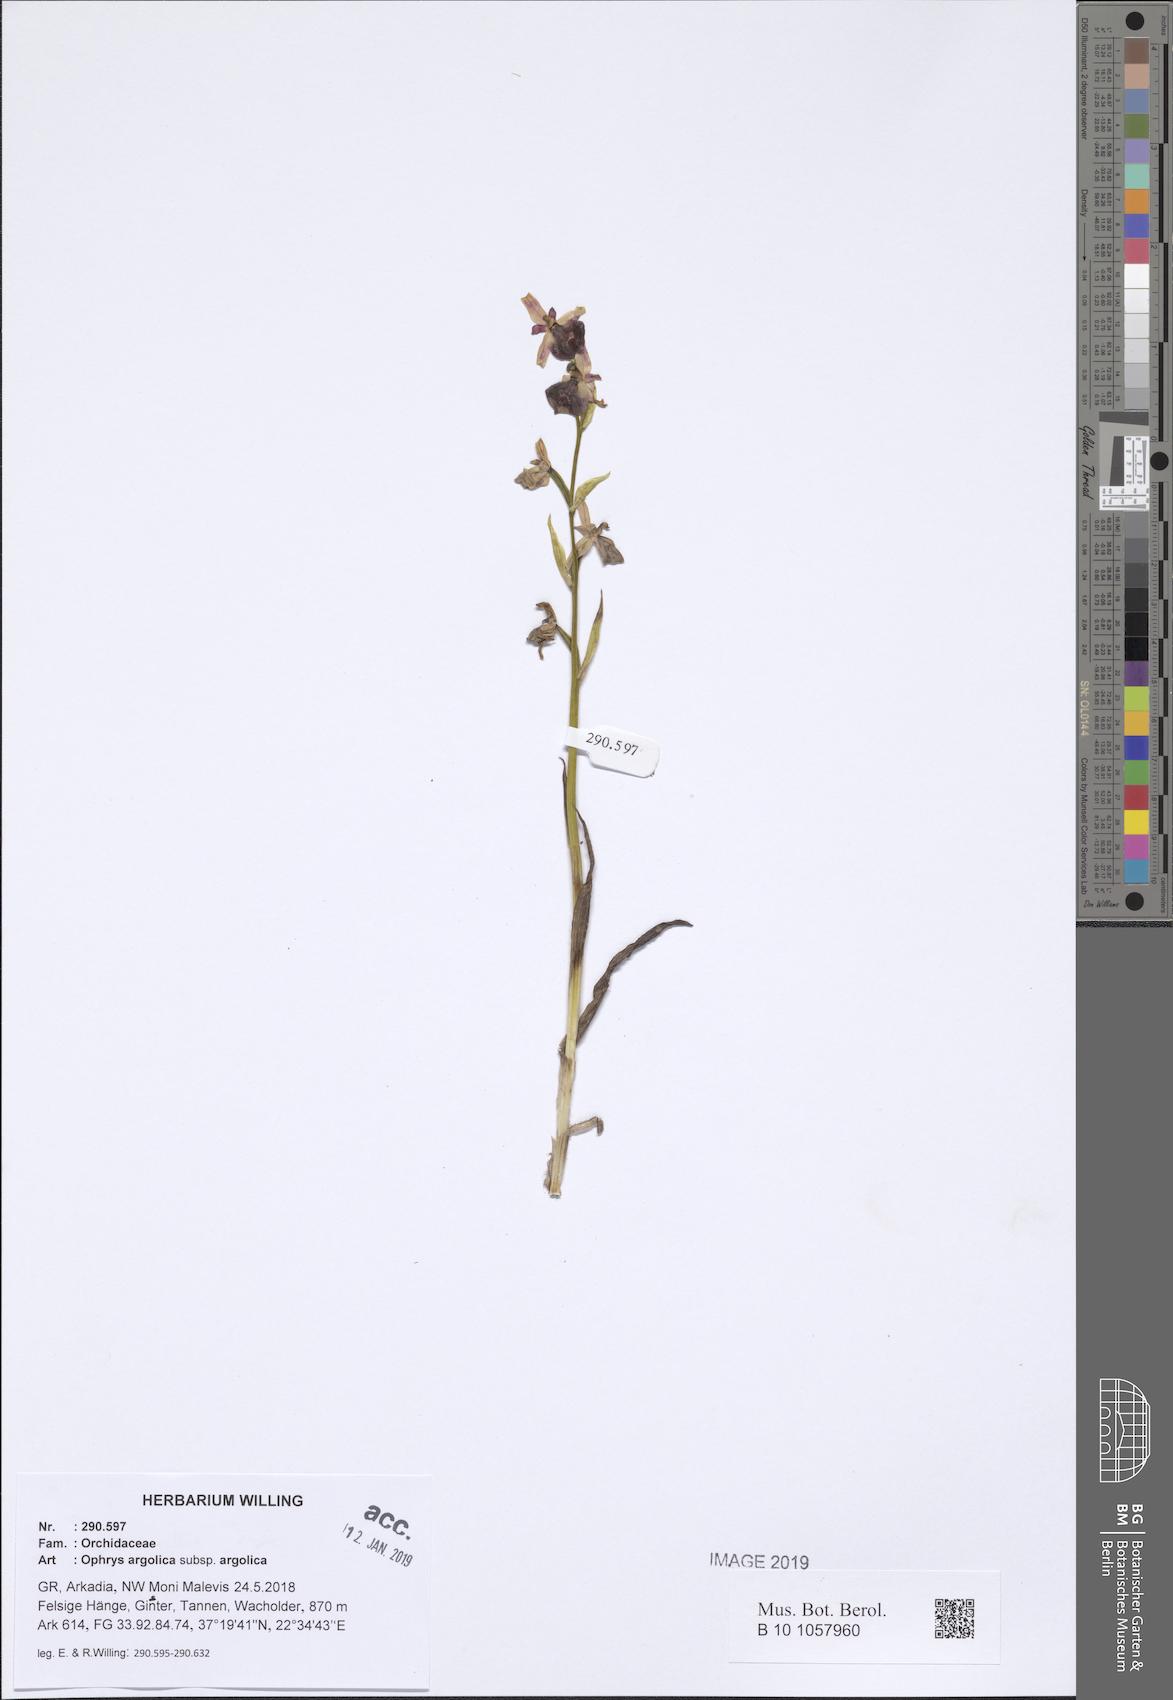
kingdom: Plantae
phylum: Tracheophyta
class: Liliopsida
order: Asparagales
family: Orchidaceae
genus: Ophrys
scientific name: Ophrys argolica
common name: Argolic ophrys
